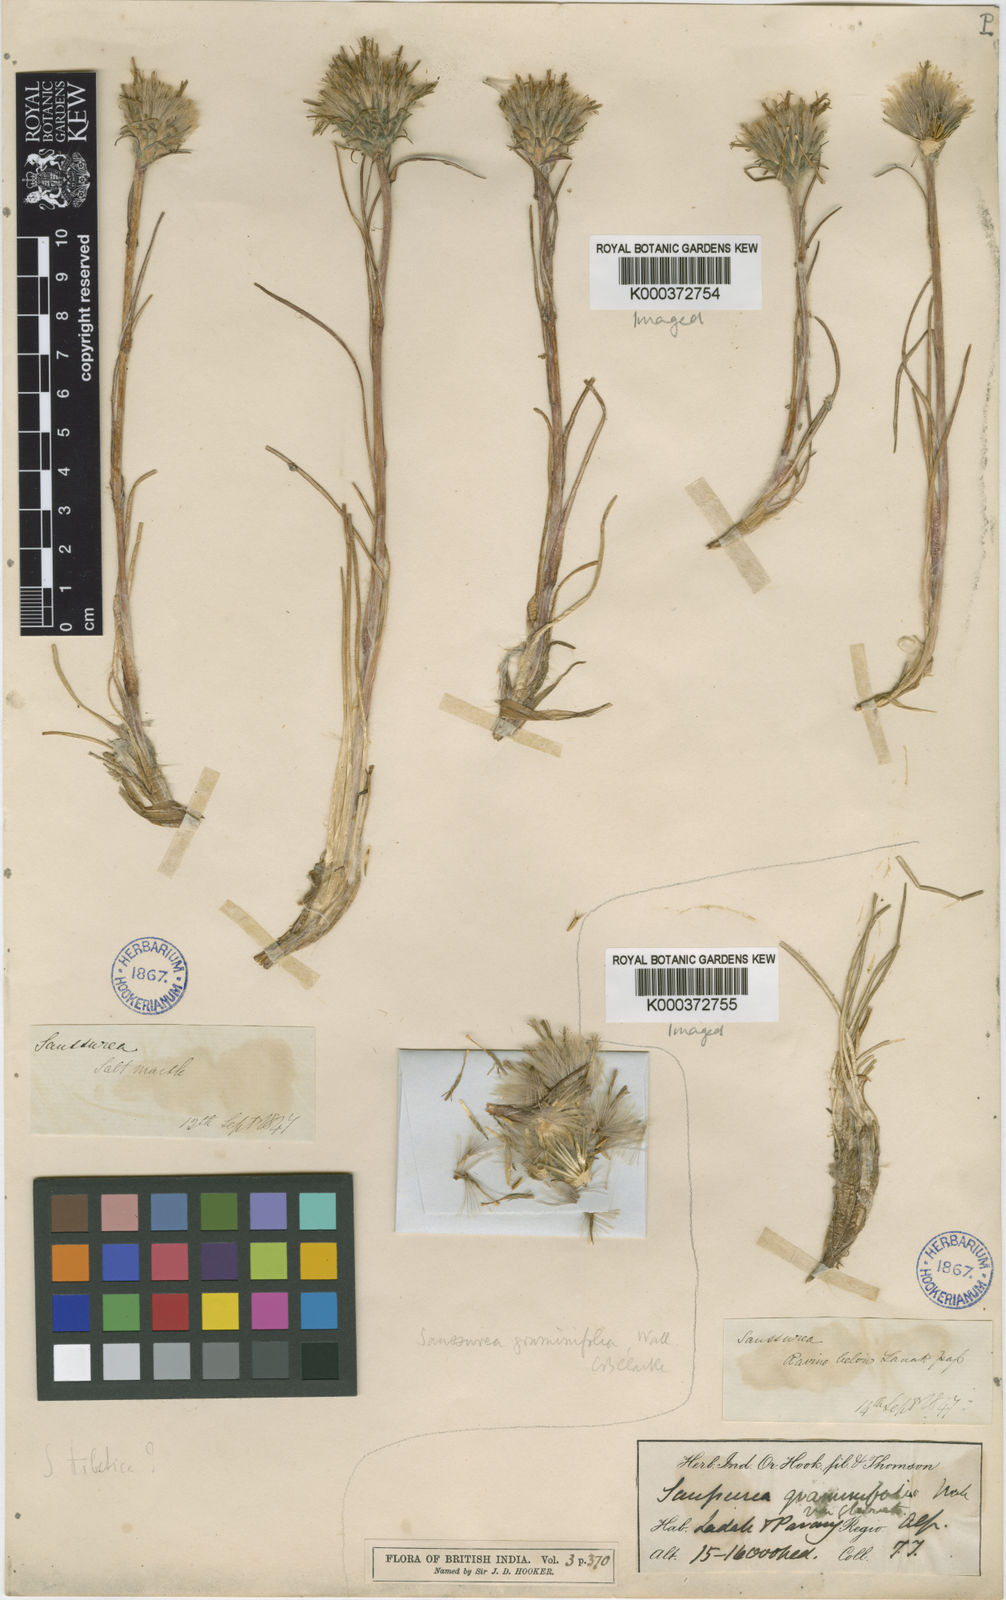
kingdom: Plantae
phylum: Tracheophyta
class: Magnoliopsida
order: Asterales
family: Asteraceae
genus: Saussurea
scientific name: Saussurea graminifolia
